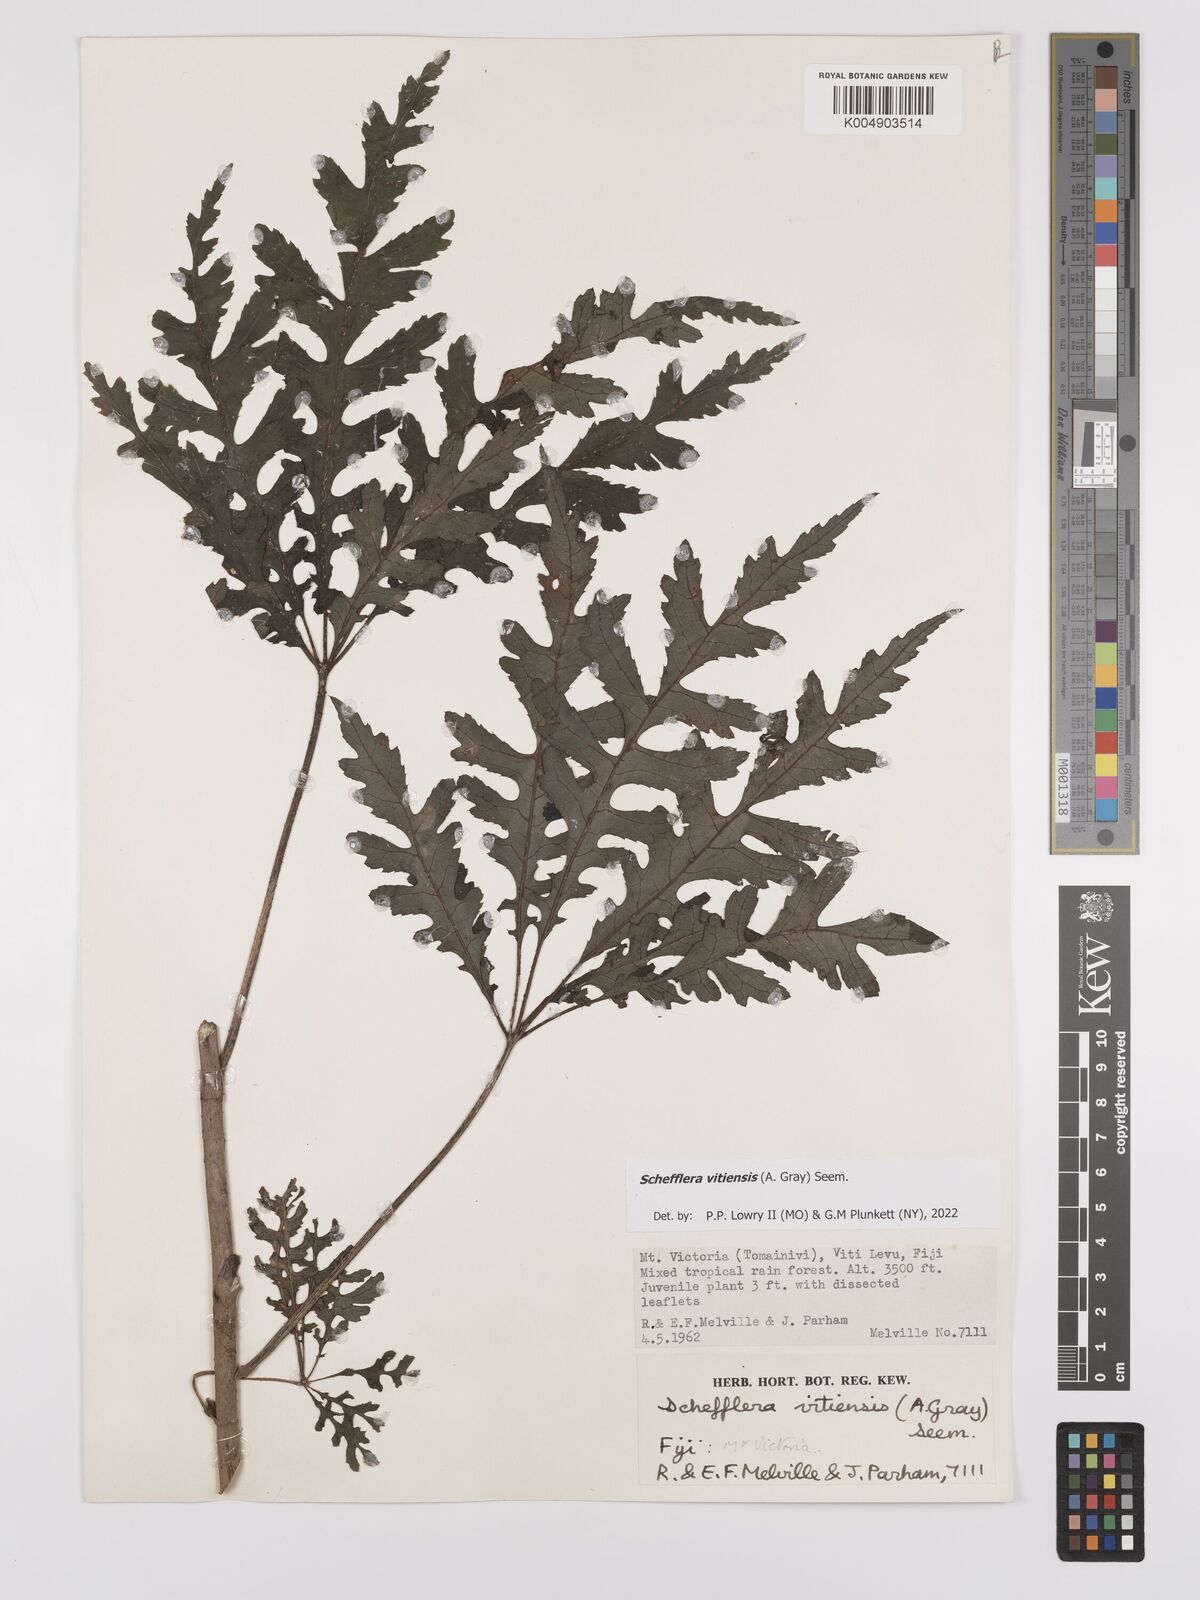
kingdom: Plantae
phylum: Tracheophyta
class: Magnoliopsida
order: Apiales
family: Araliaceae
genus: Schefflera
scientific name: Schefflera vitiensis
